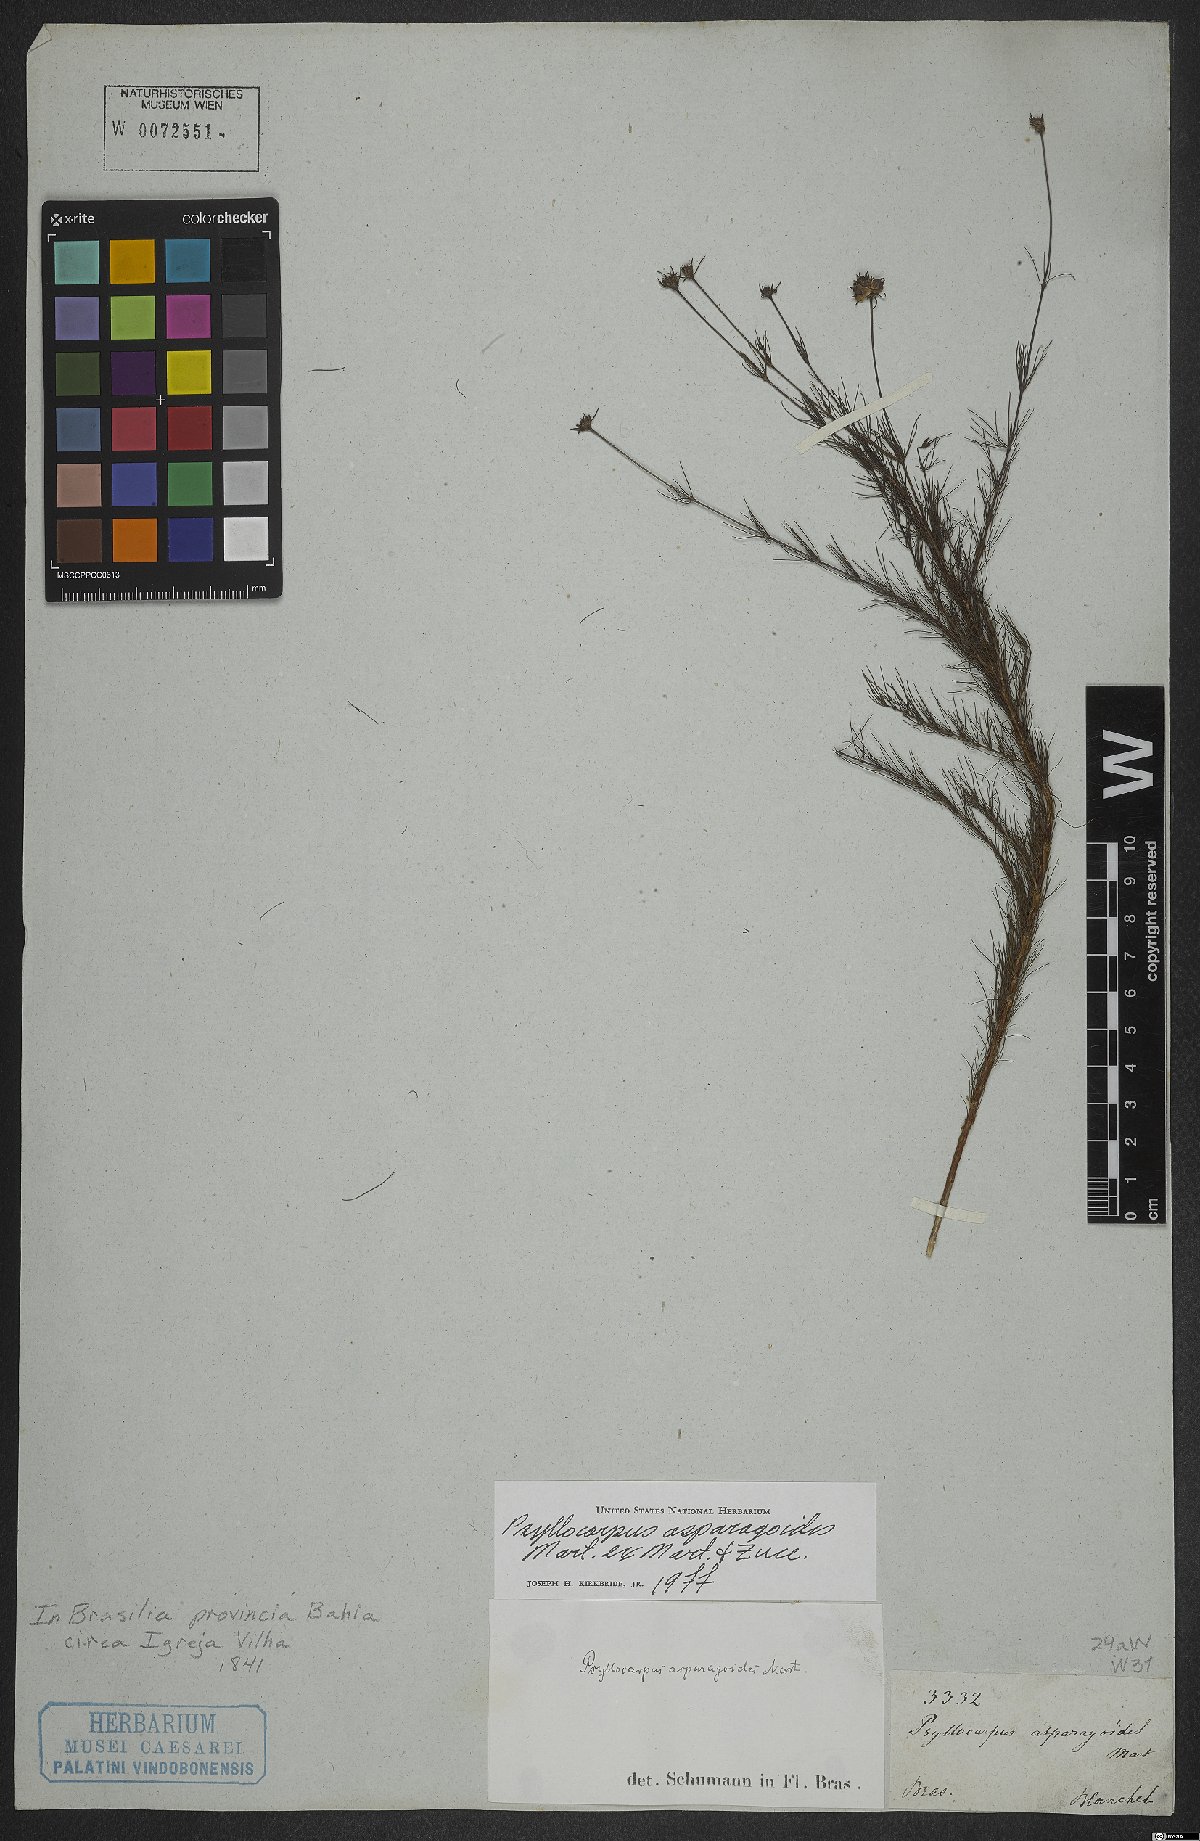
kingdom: Plantae
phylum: Tracheophyta
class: Magnoliopsida
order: Gentianales
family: Rubiaceae
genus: Psyllocarpus
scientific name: Psyllocarpus asparagoides
